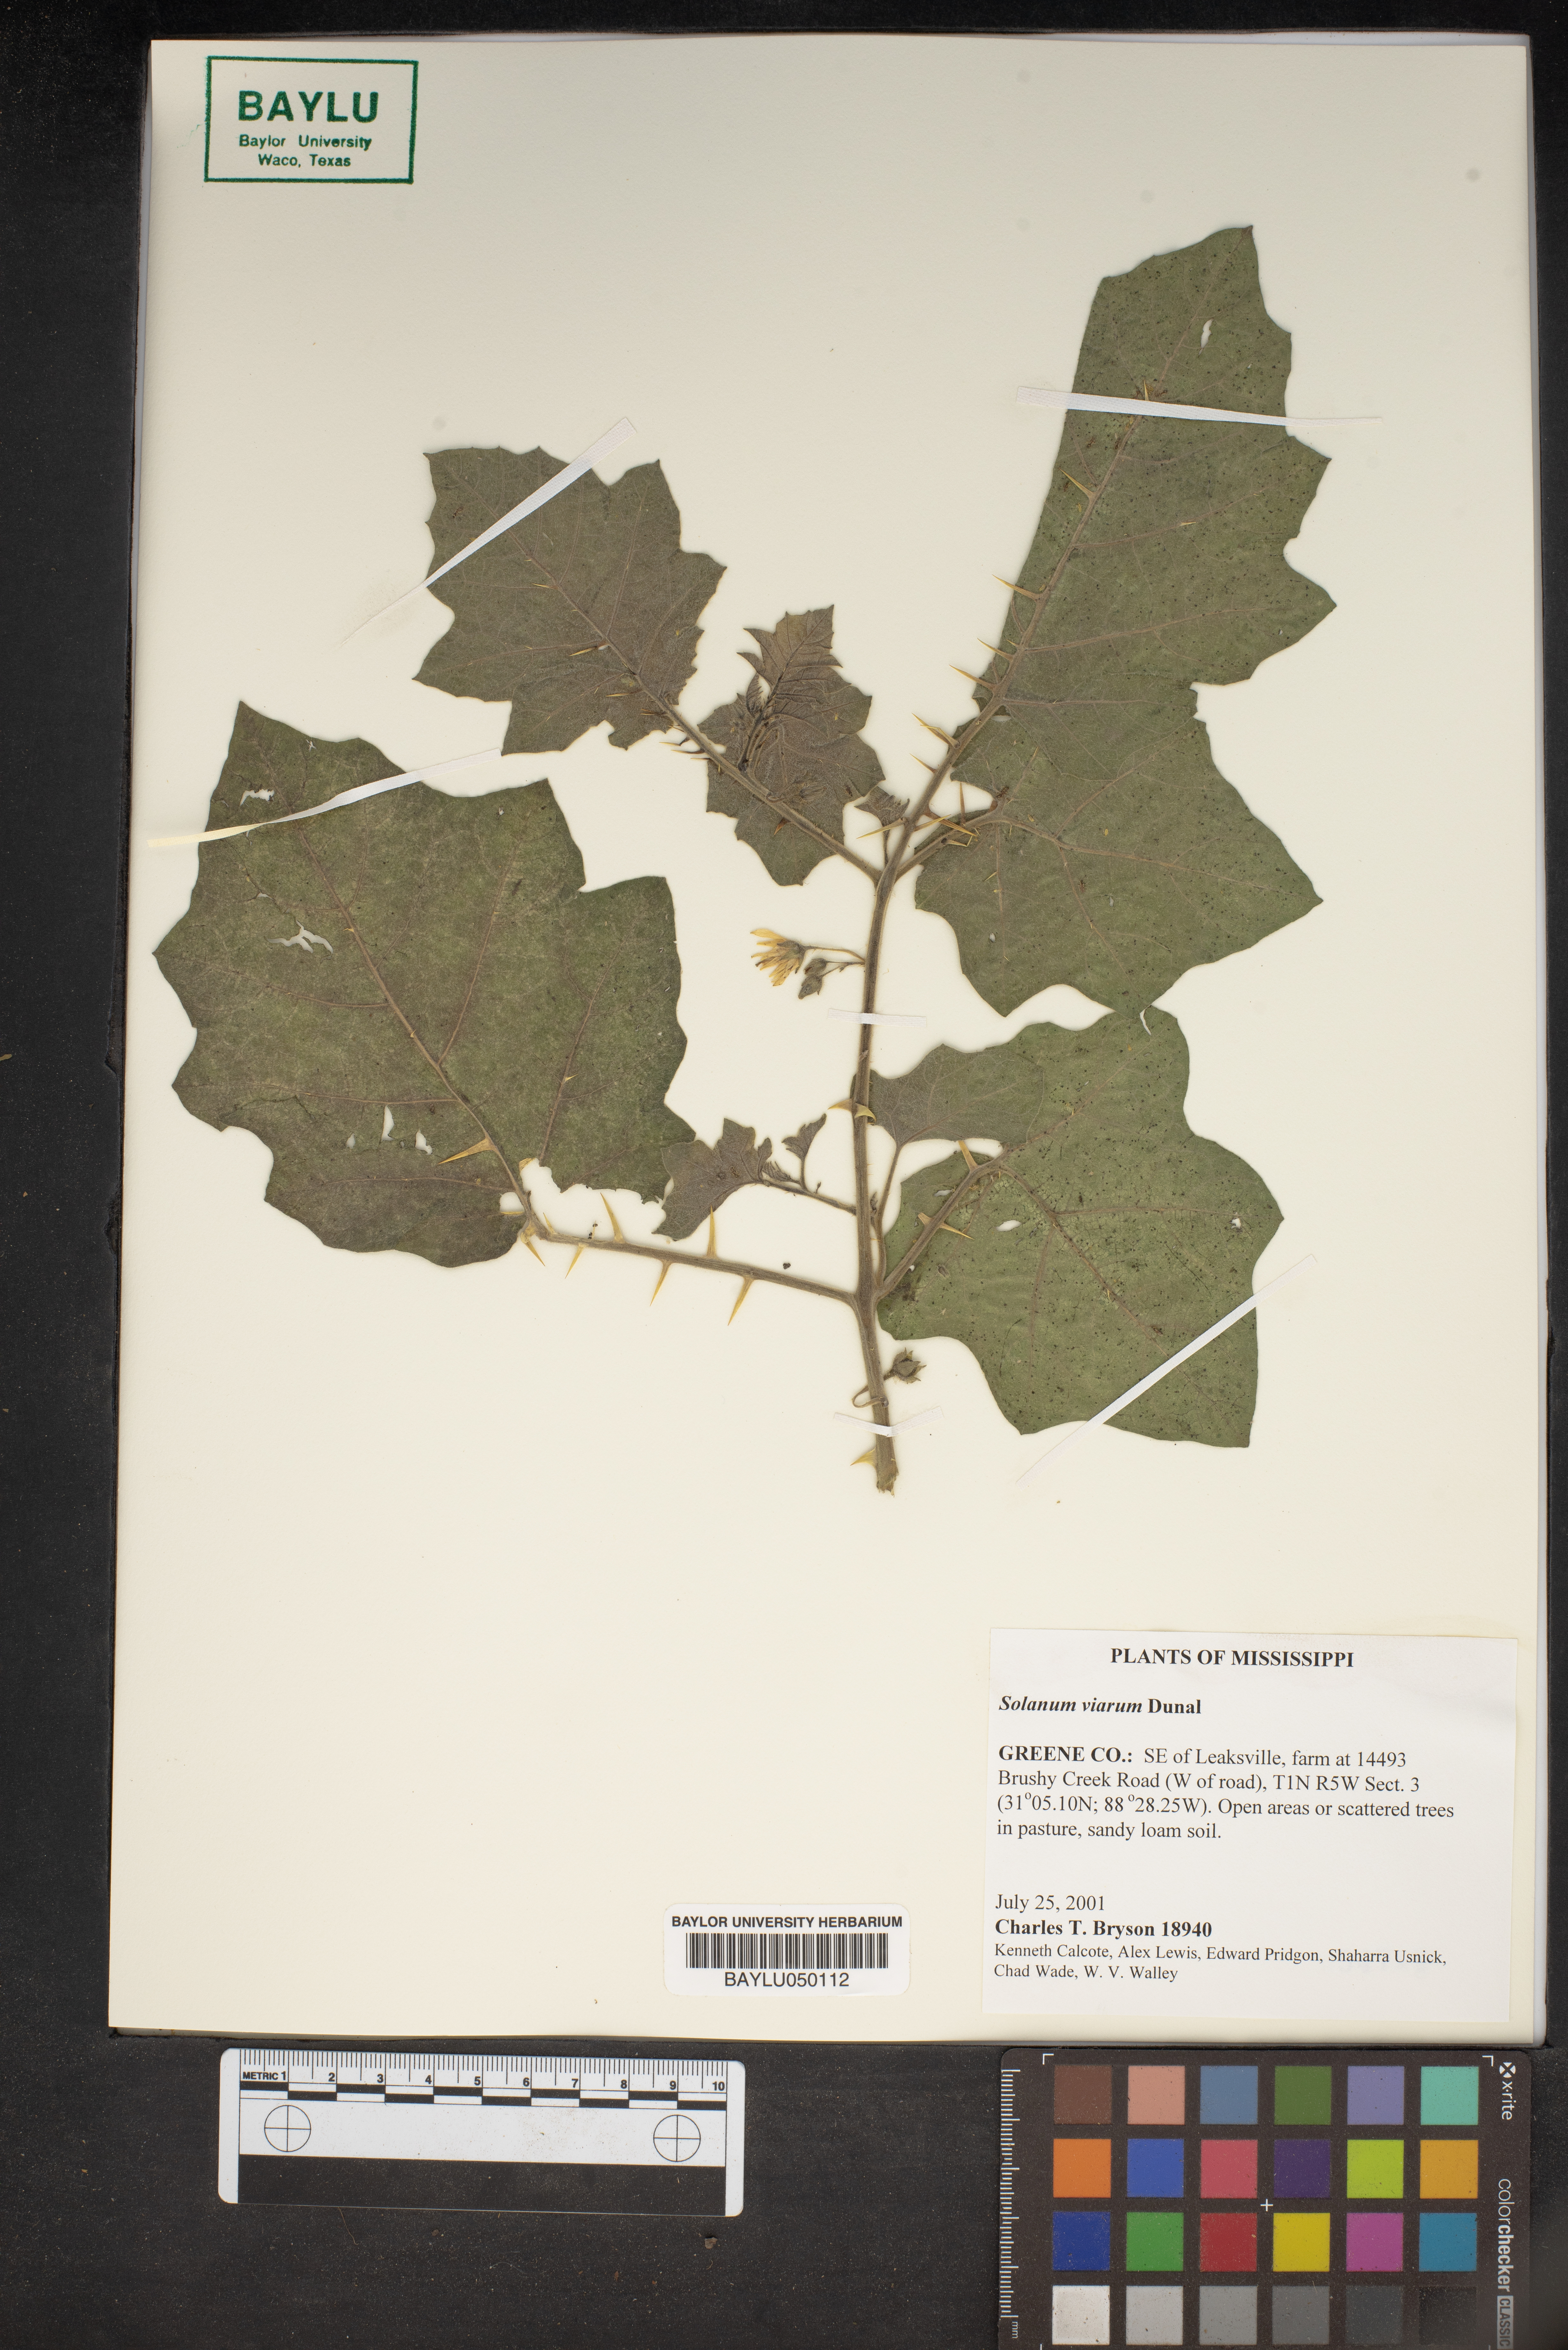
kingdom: Plantae
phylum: Tracheophyta
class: Magnoliopsida
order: Solanales
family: Solanaceae
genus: Solanum
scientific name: Solanum viarum
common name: Tropical soda apple
